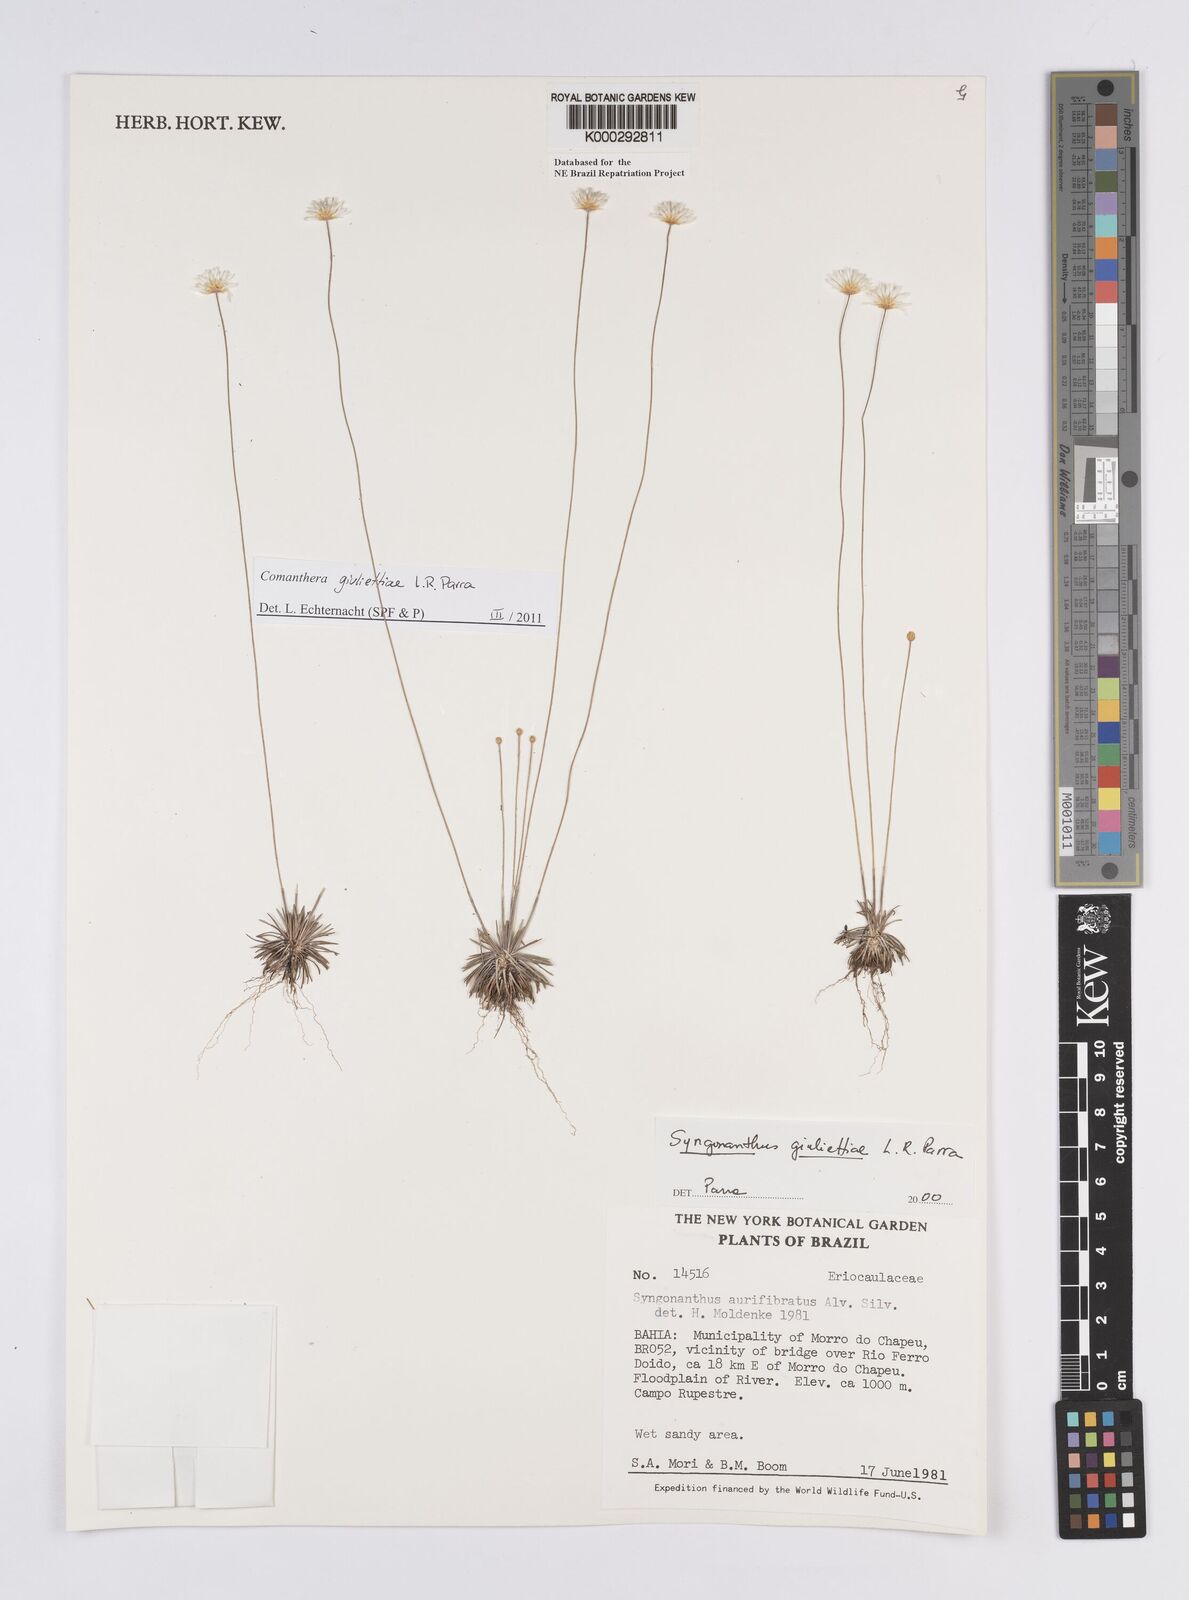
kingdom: Plantae
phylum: Tracheophyta
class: Liliopsida
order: Poales
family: Eriocaulaceae
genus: Syngonanthus
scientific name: Syngonanthus
